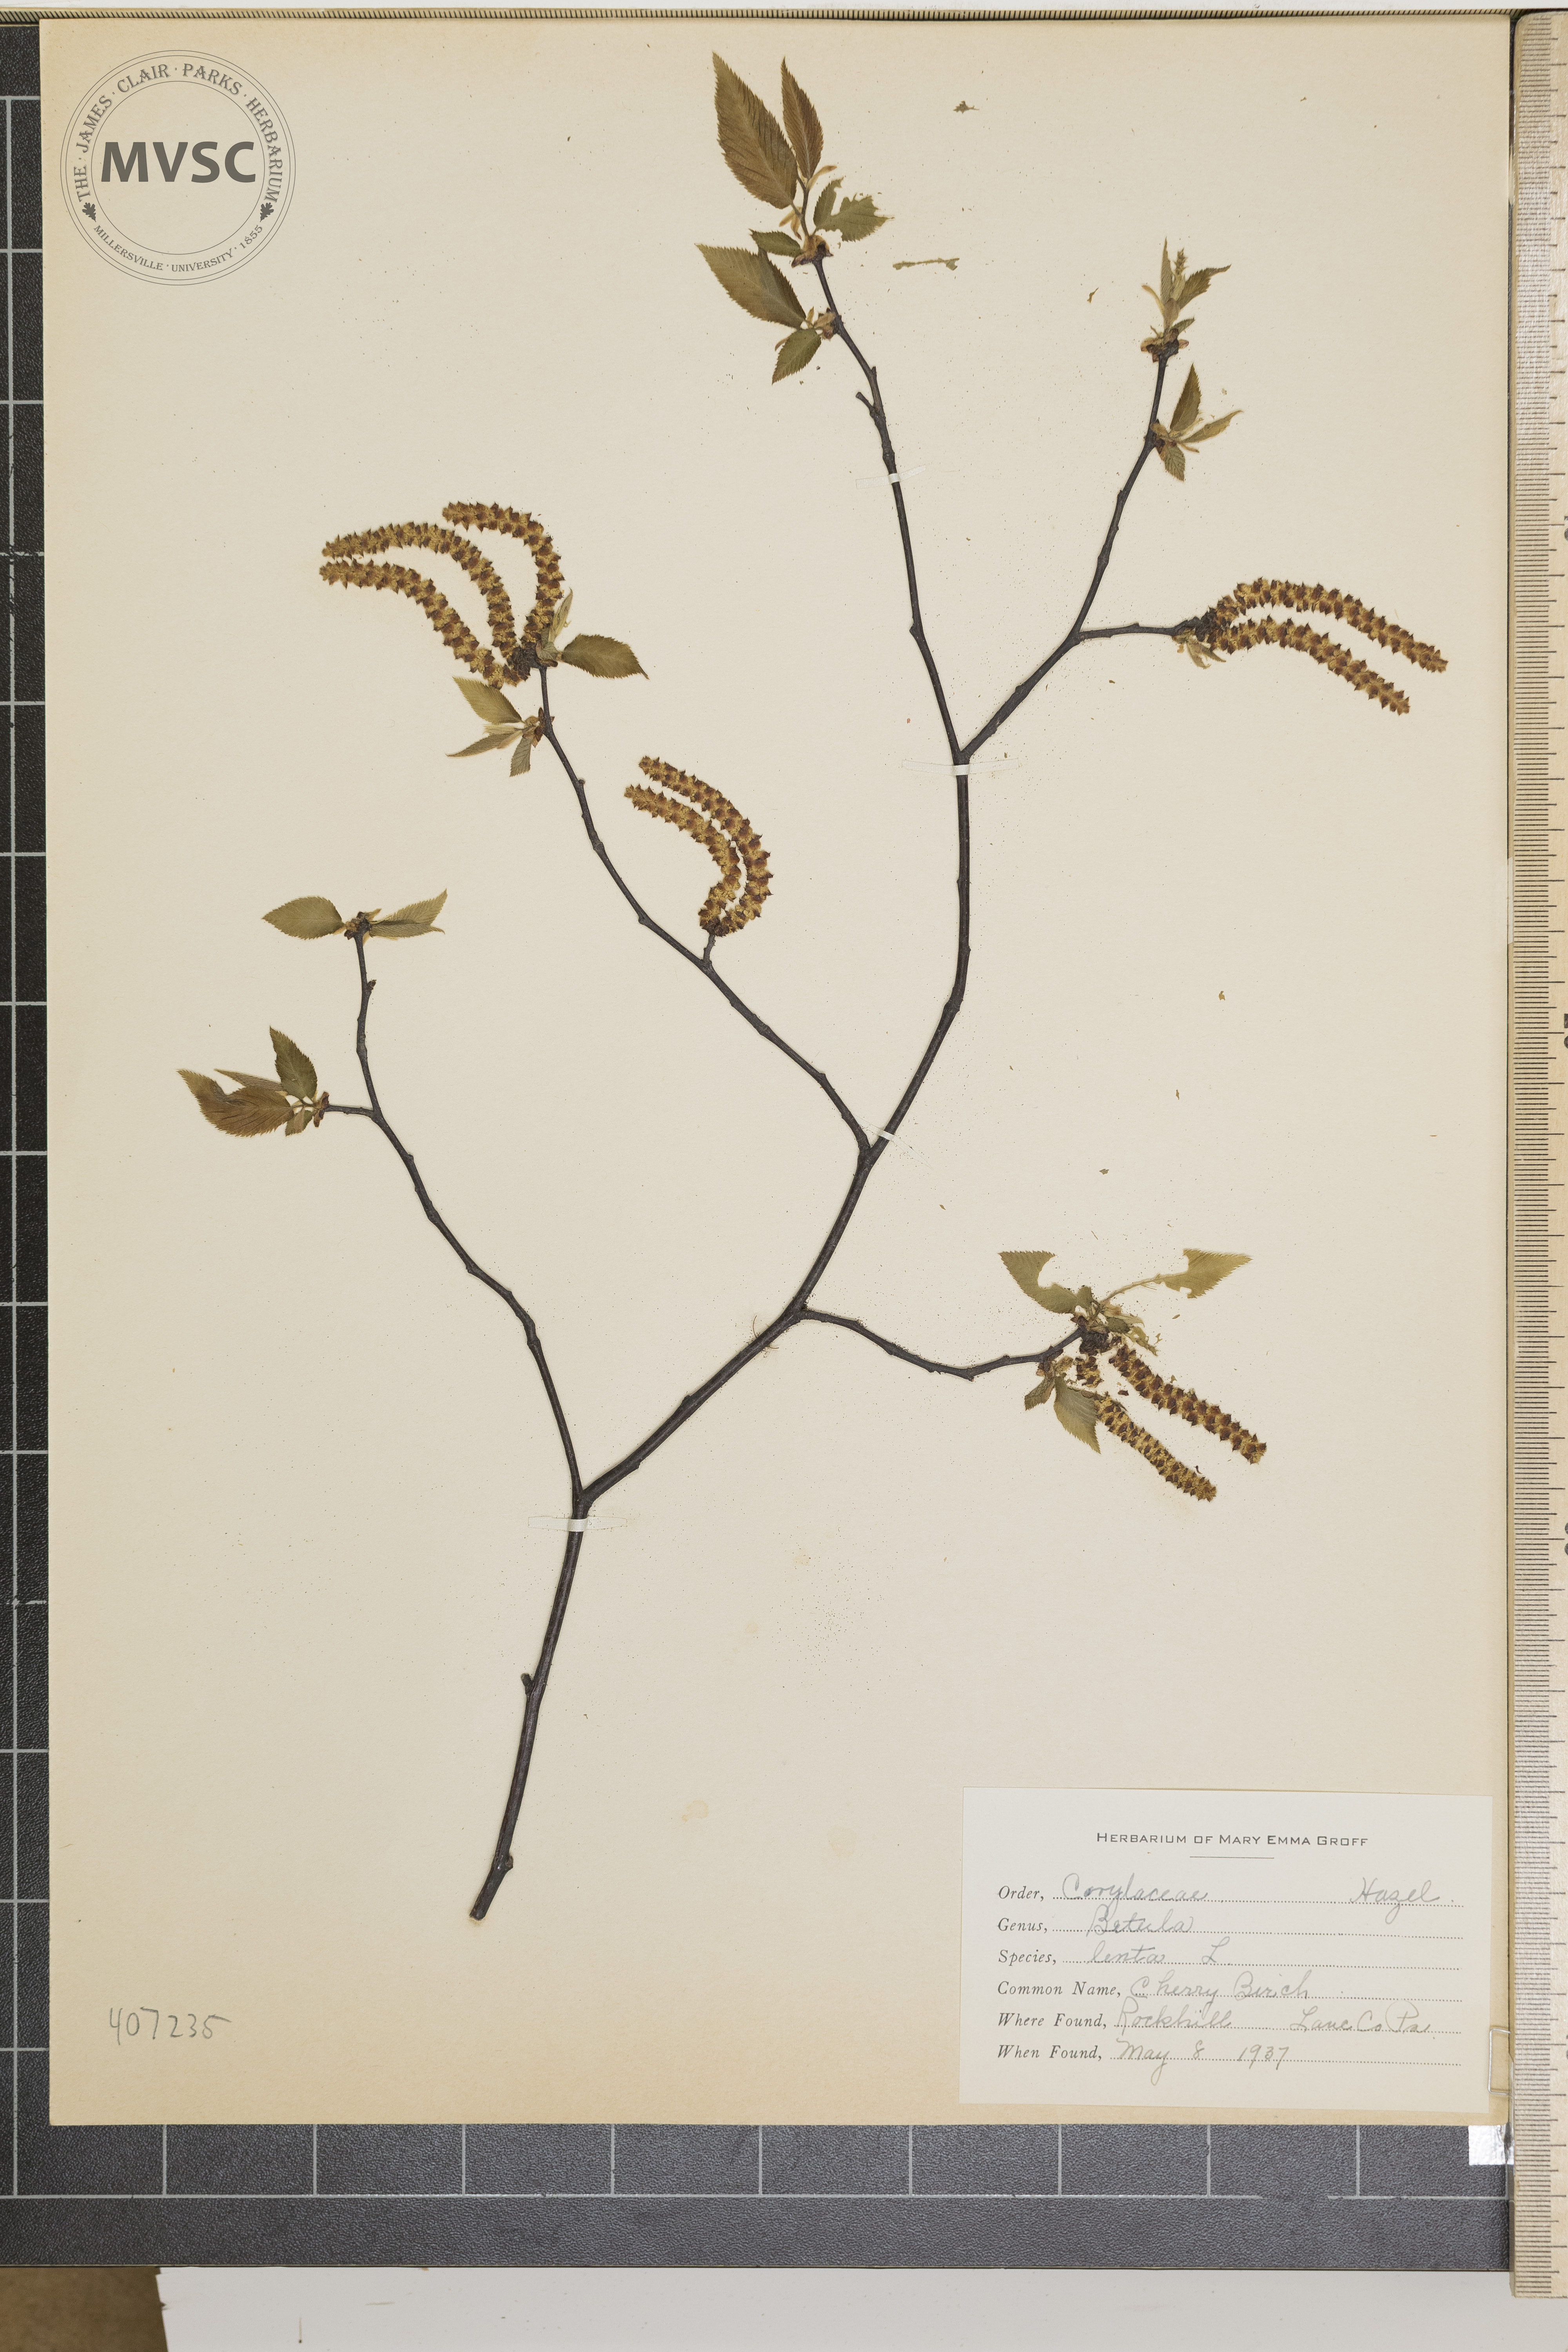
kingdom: Plantae
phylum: Tracheophyta
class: Magnoliopsida
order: Fagales
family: Betulaceae
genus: Betula
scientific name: Betula lenta
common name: Cherry Birch
